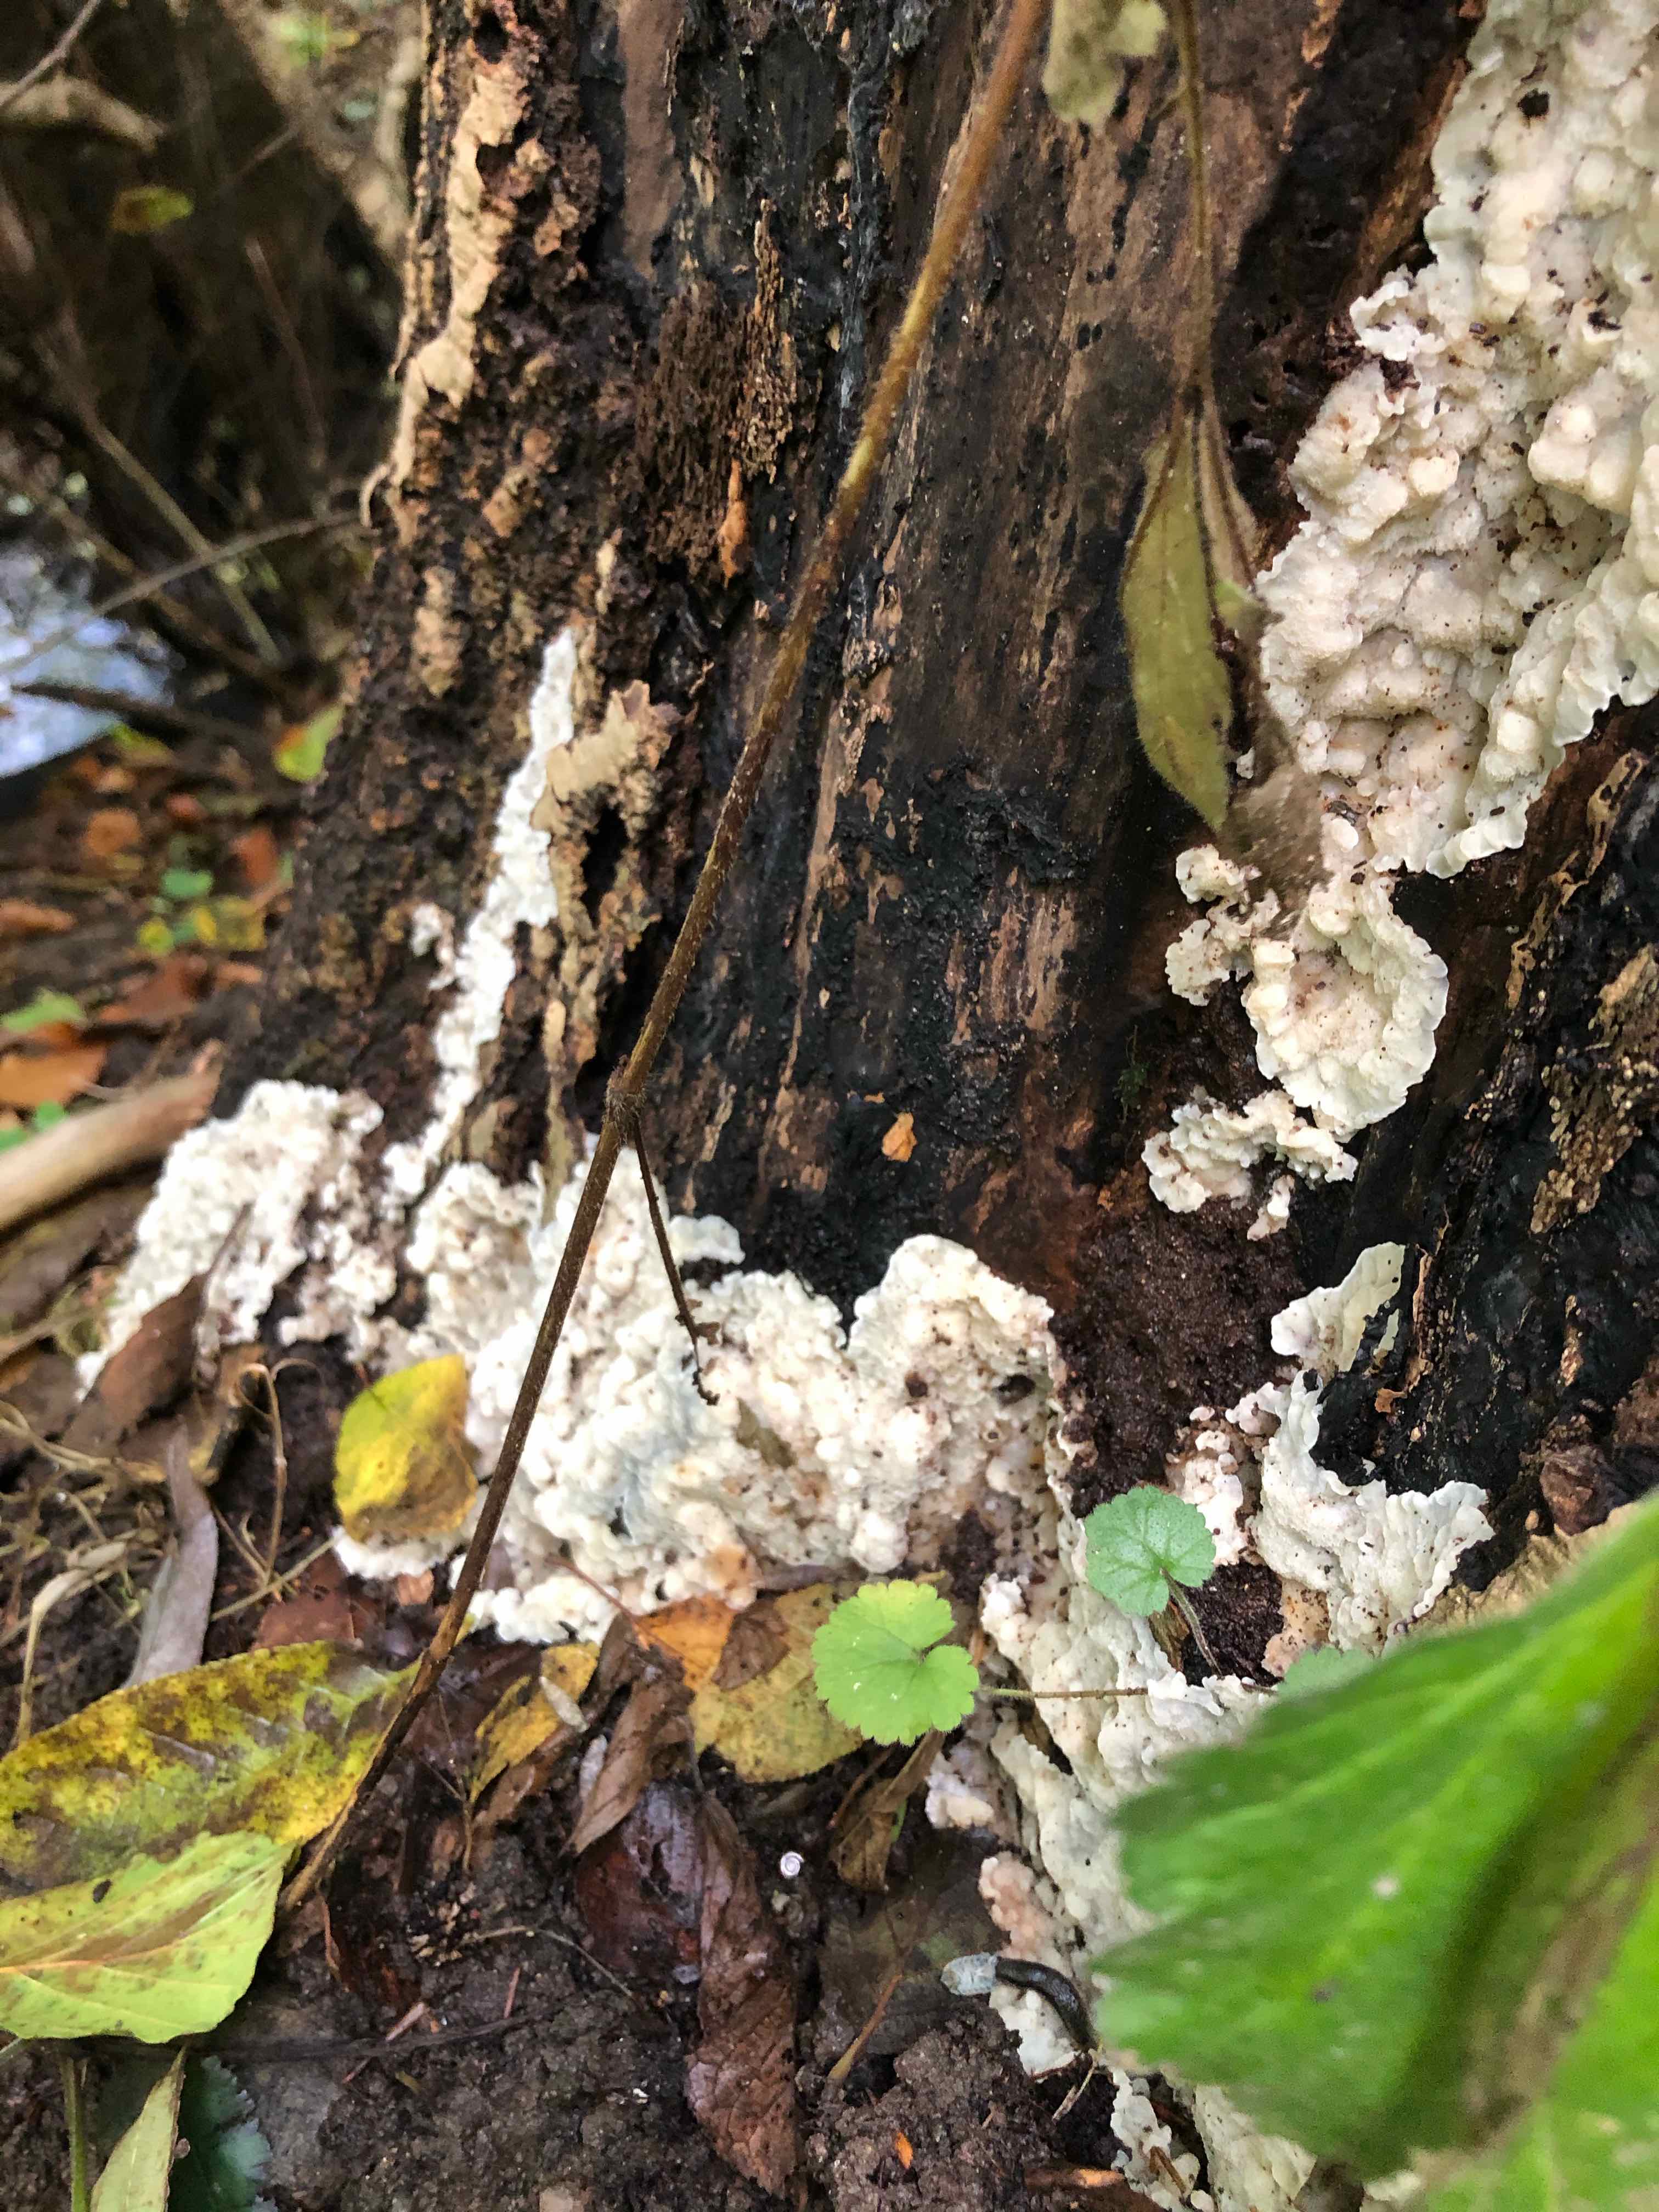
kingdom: Fungi
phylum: Basidiomycota
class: Agaricomycetes
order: Polyporales
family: Meruliaceae
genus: Physisporinus
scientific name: Physisporinus vitreus
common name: mastesvamp
